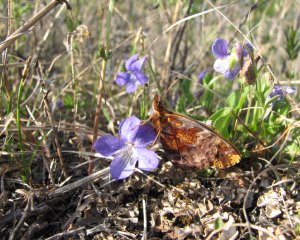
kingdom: Animalia
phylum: Arthropoda
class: Insecta
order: Lepidoptera
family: Nymphalidae
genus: Clossiana
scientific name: Clossiana toddi
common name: Meadow Fritillary
